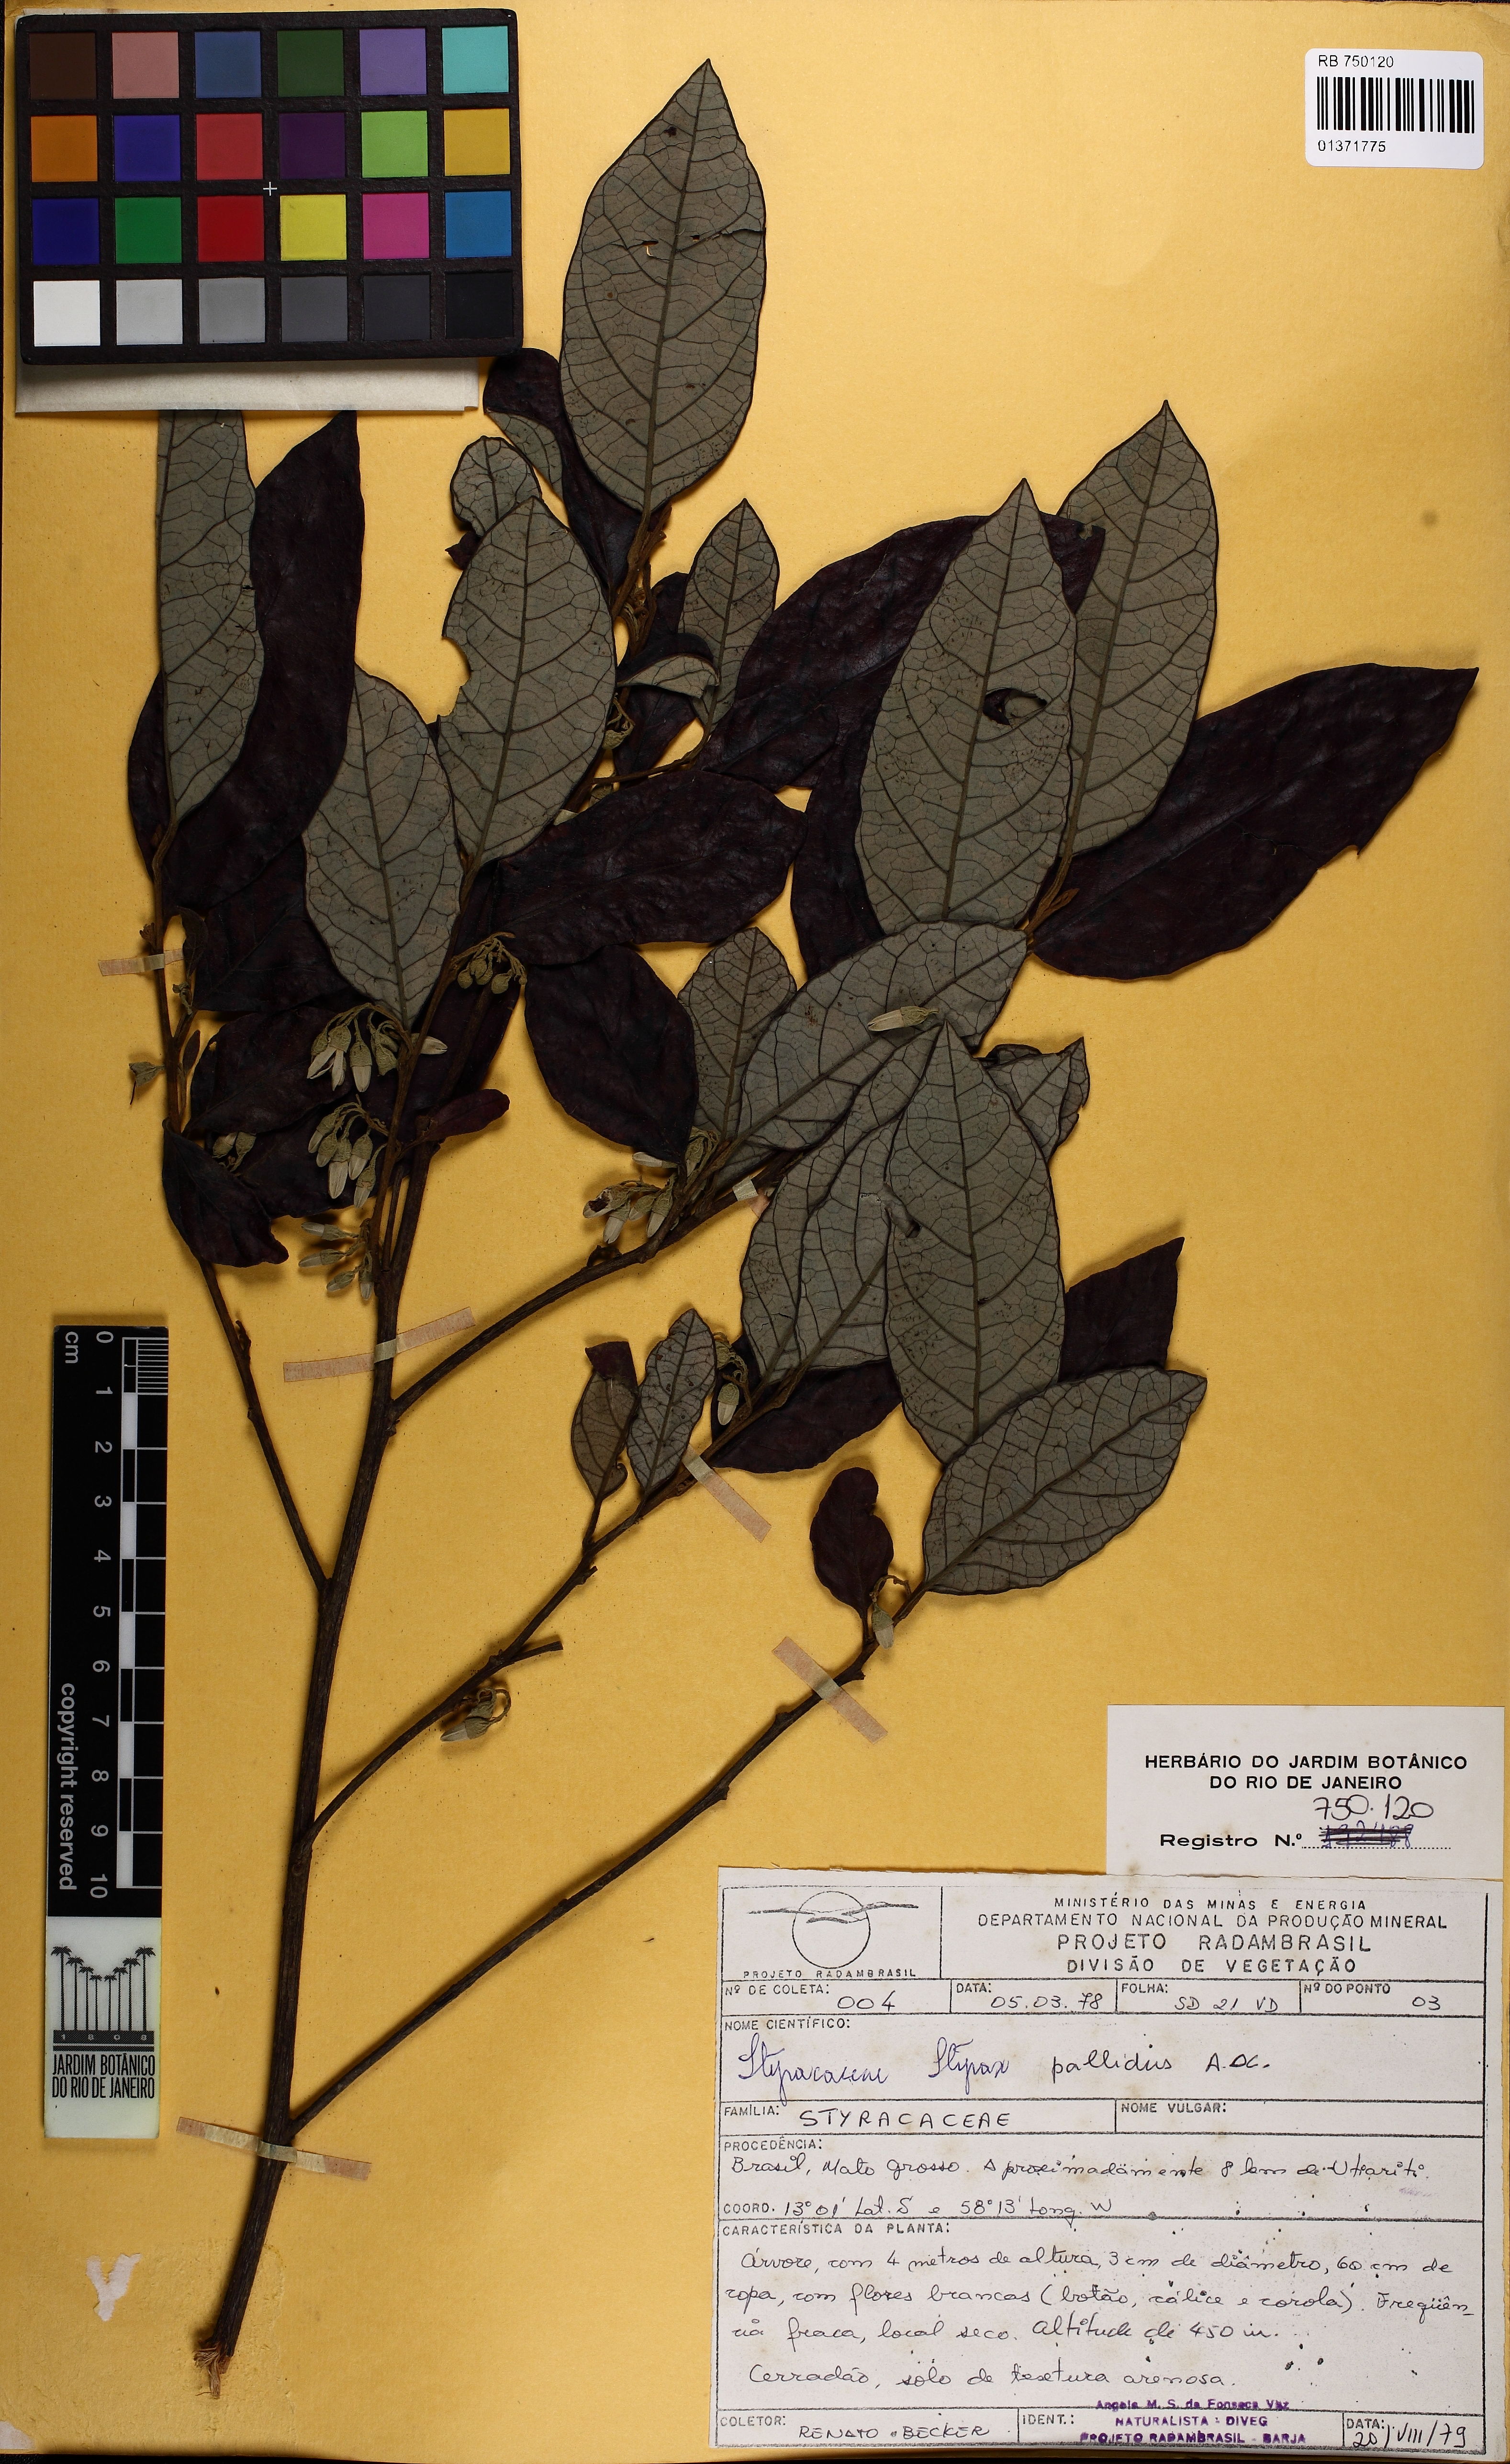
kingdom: Plantae
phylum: Tracheophyta
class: Magnoliopsida
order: Ericales
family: Styracaceae
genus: Styrax
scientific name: Styrax pallidus
